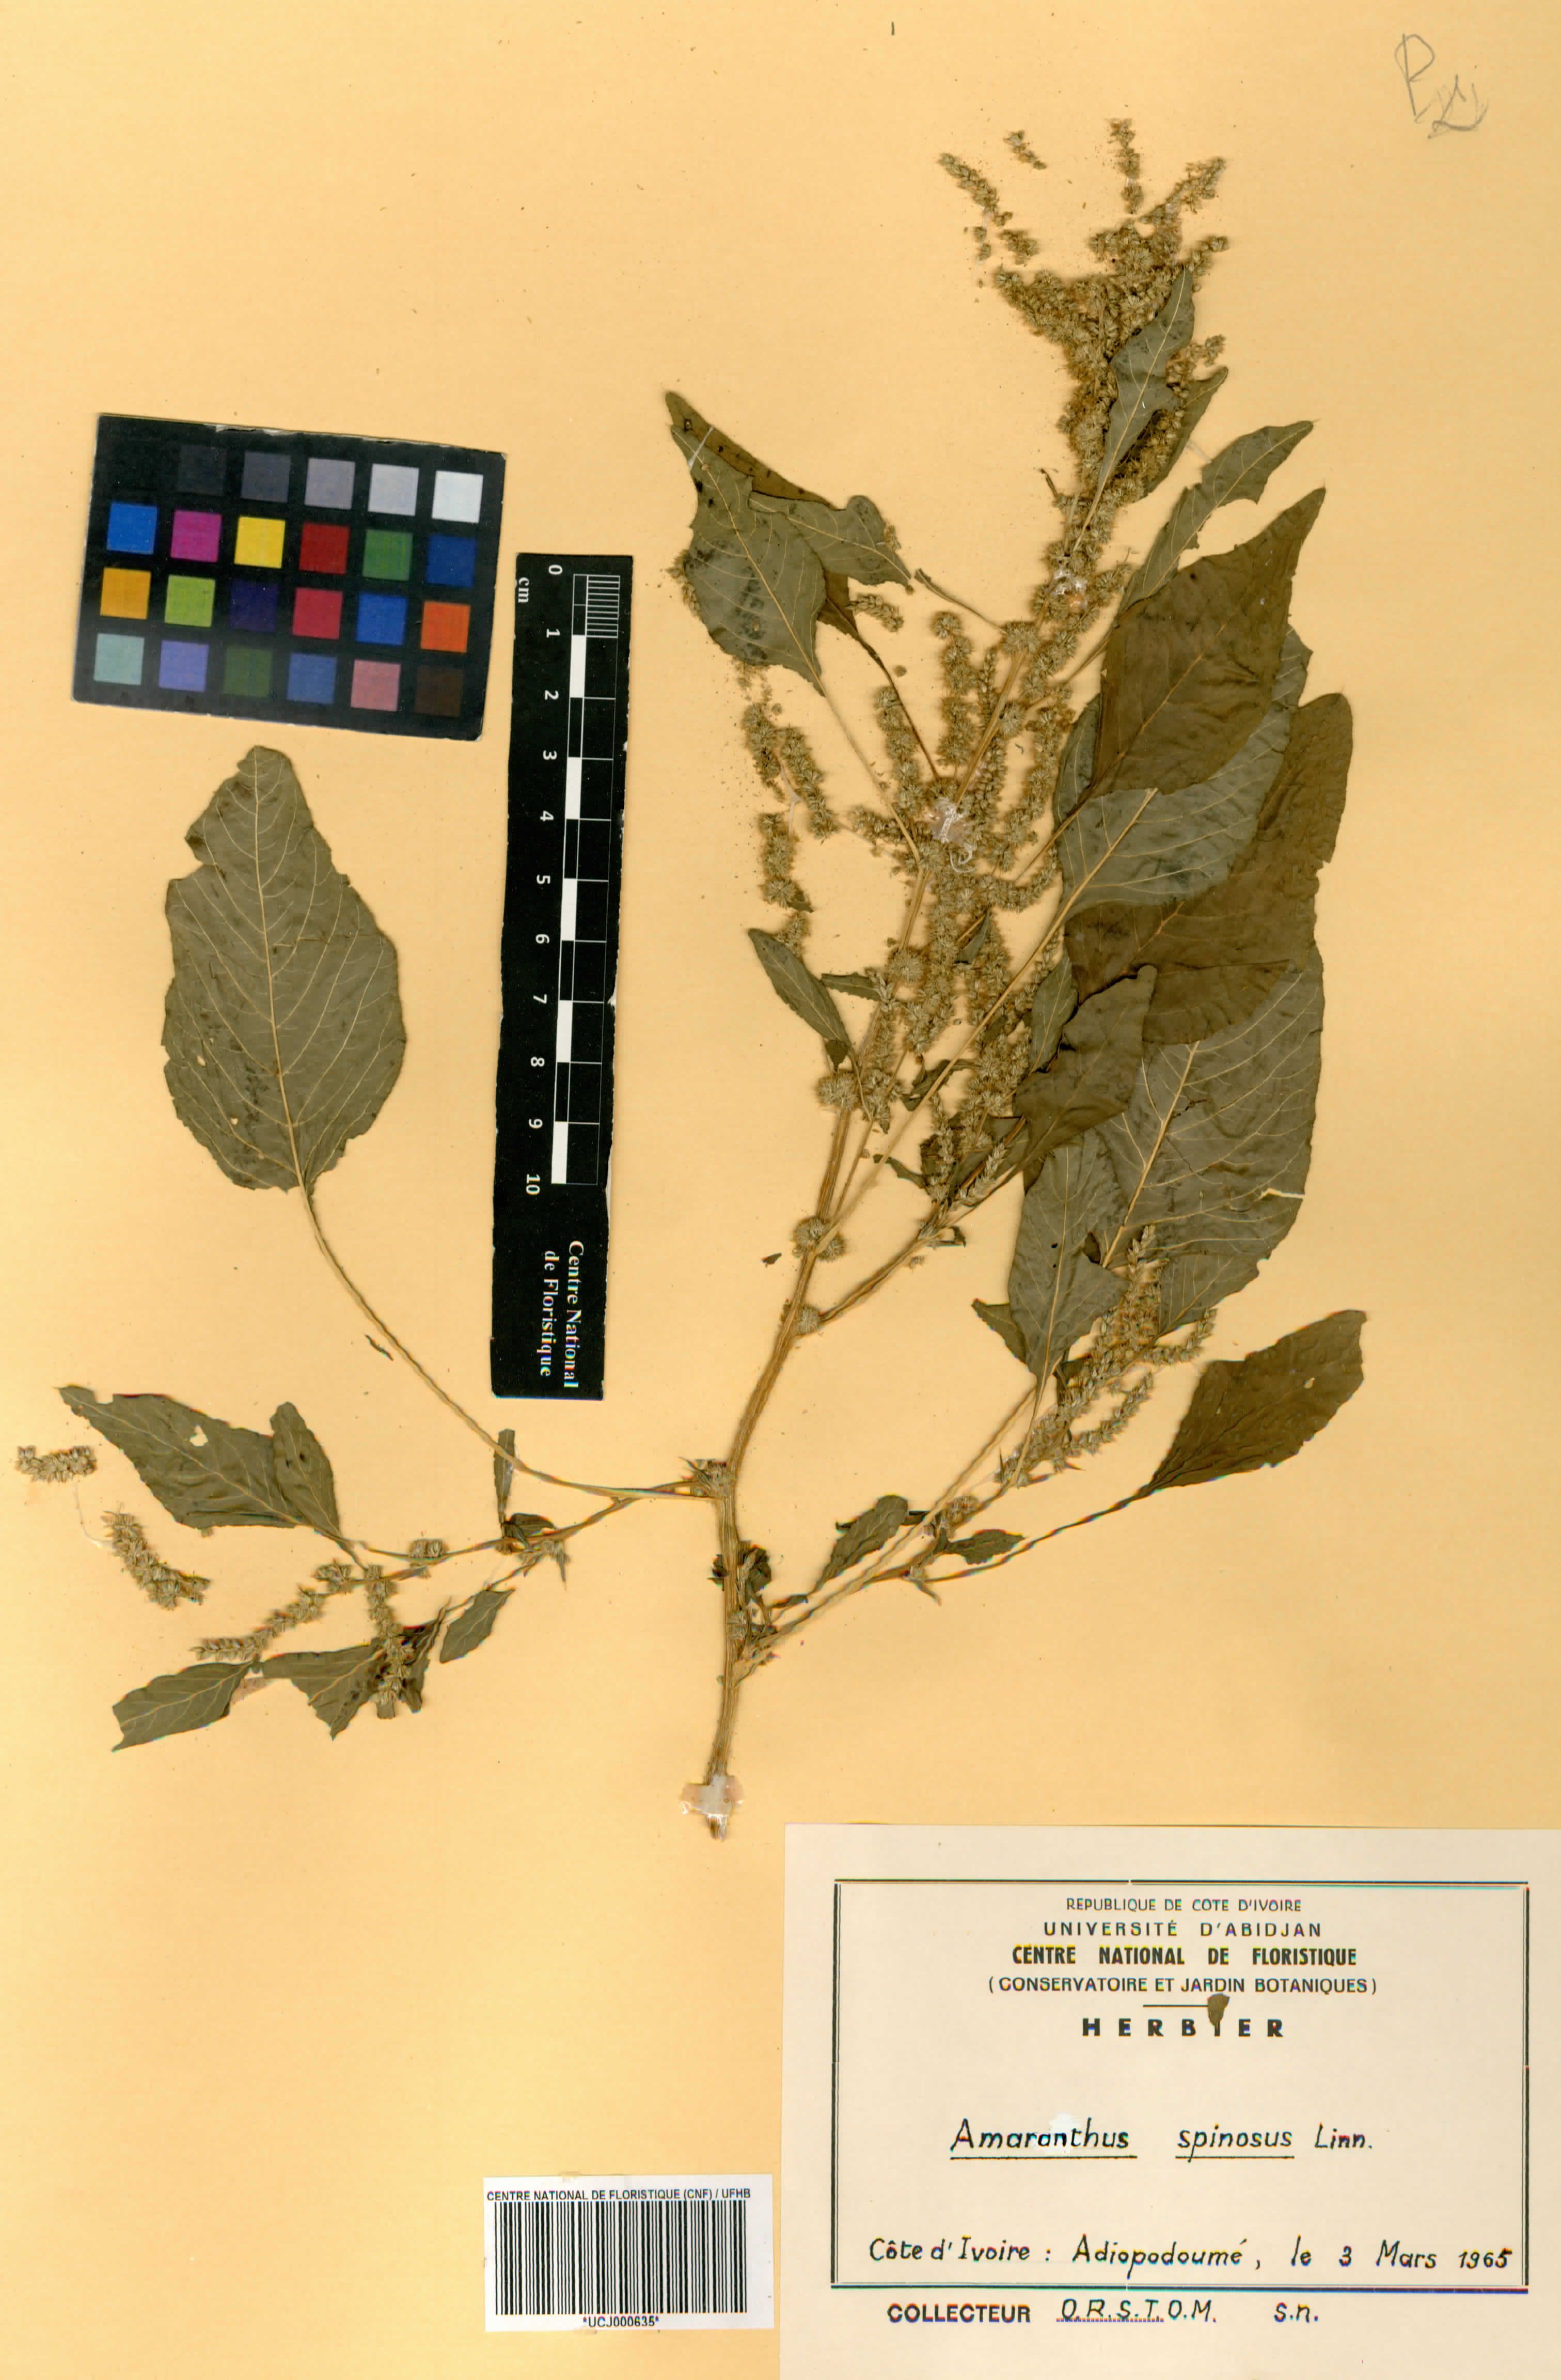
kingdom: Plantae
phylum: Tracheophyta
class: Magnoliopsida
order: Caryophyllales
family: Amaranthaceae
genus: Amaranthus
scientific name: Amaranthus spinosus
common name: Spiny amaranth
